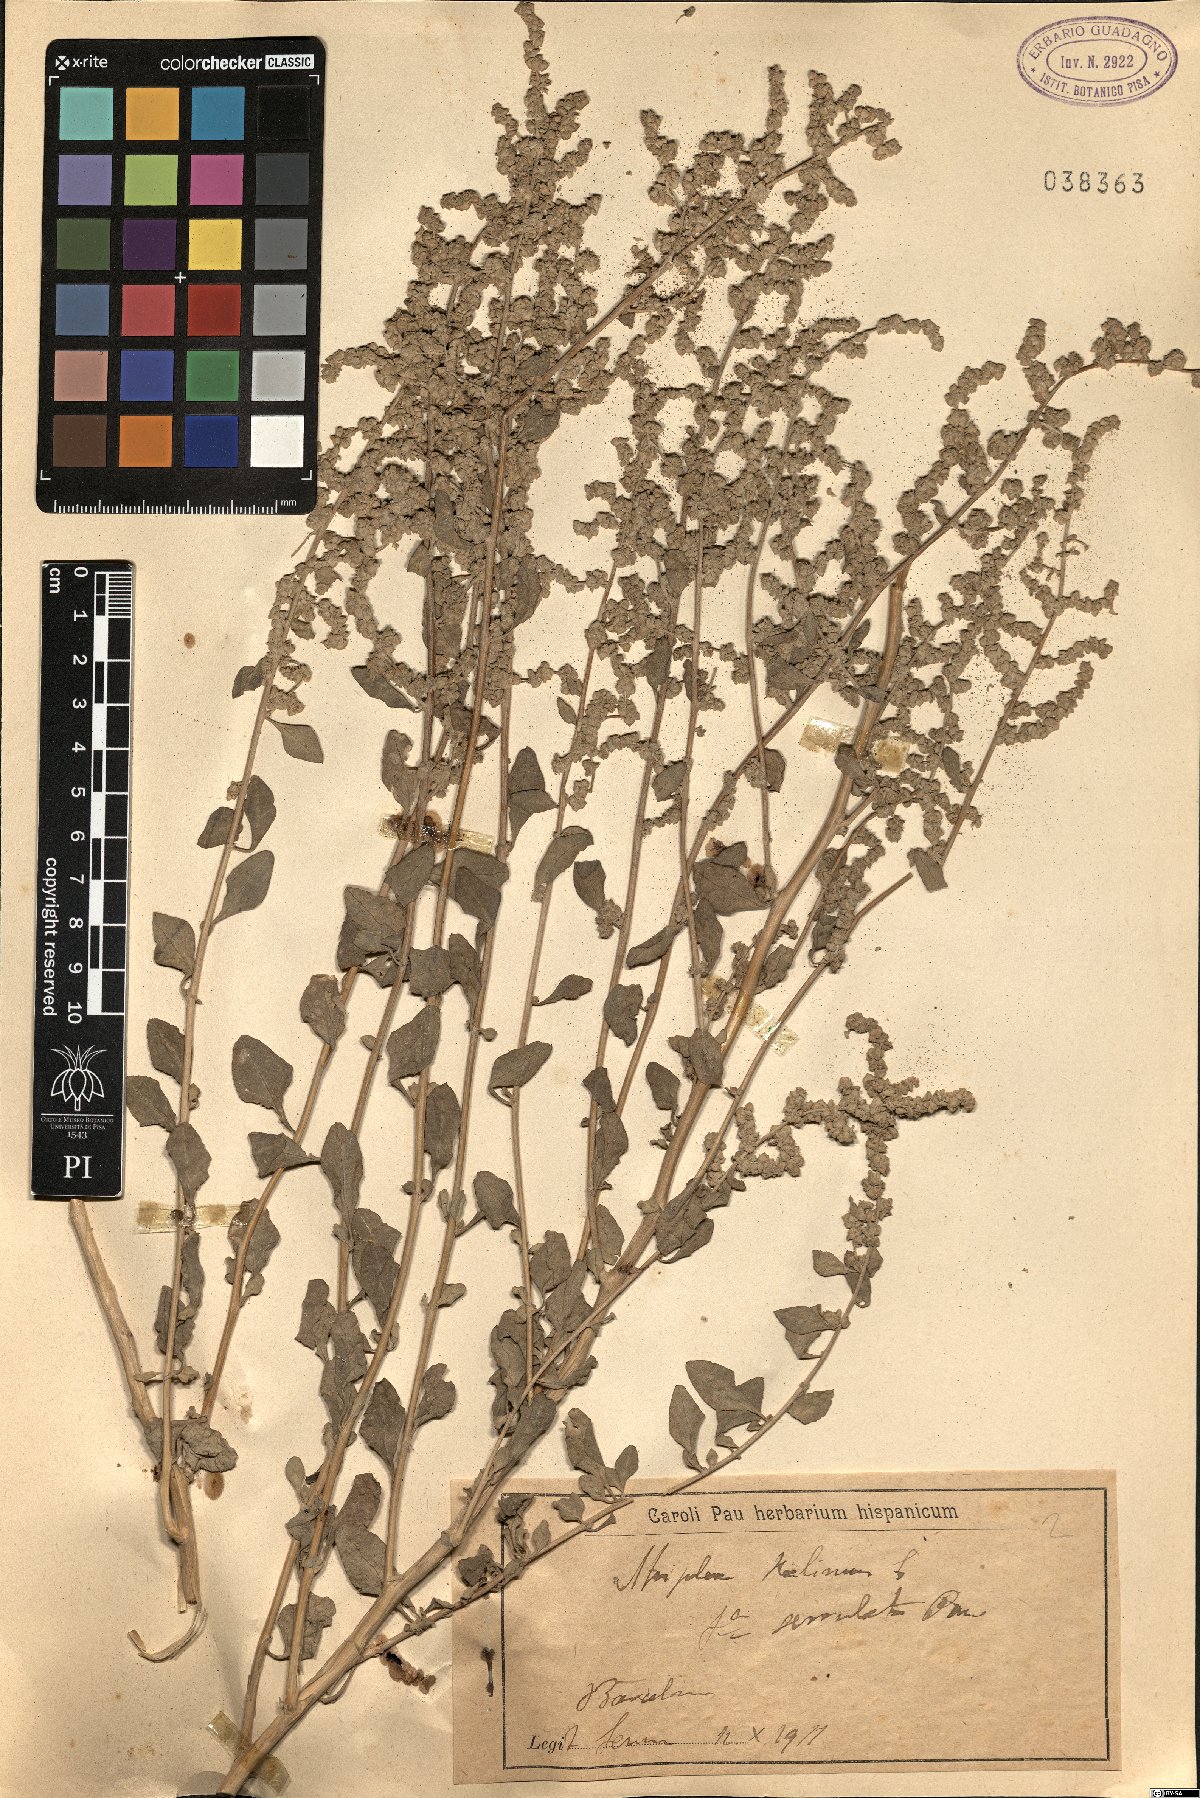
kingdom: Plantae
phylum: Tracheophyta
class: Magnoliopsida
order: Caryophyllales
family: Amaranthaceae
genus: Atriplex
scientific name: Atriplex halimus
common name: Shrubby orache
